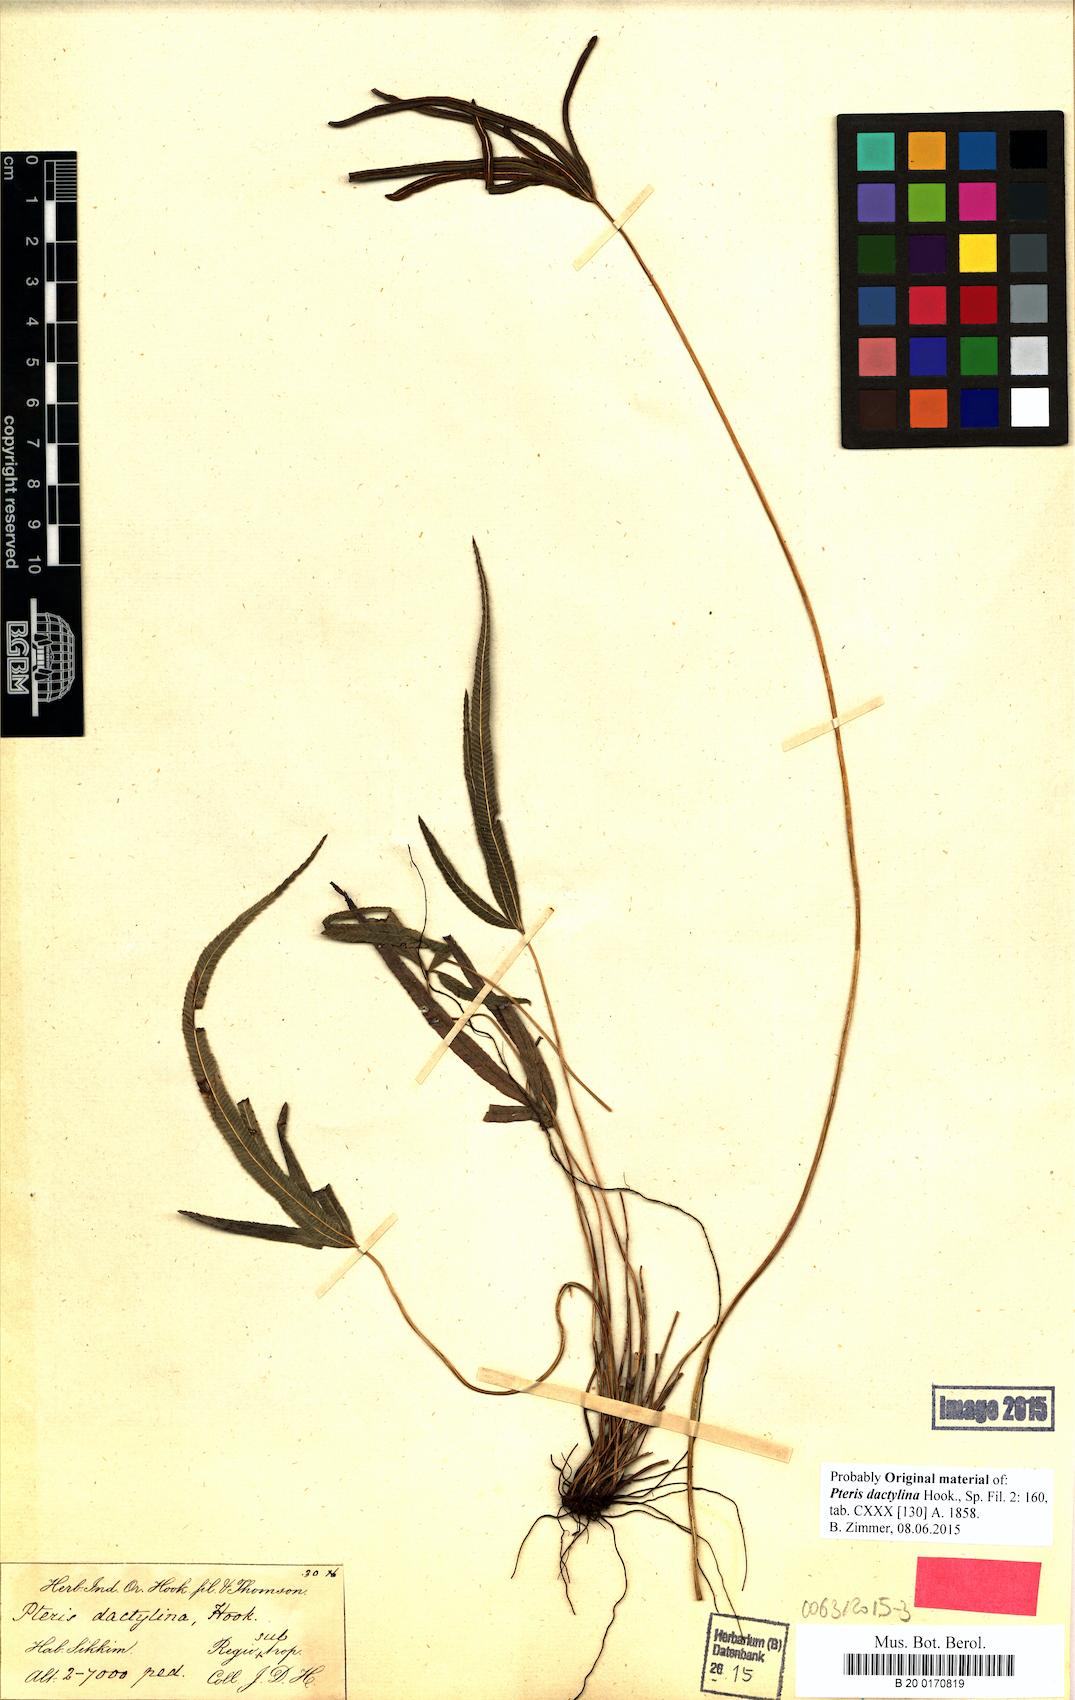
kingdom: Plantae
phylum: Tracheophyta
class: Polypodiopsida
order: Polypodiales
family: Pteridaceae
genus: Pteris
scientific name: Pteris dactylina
